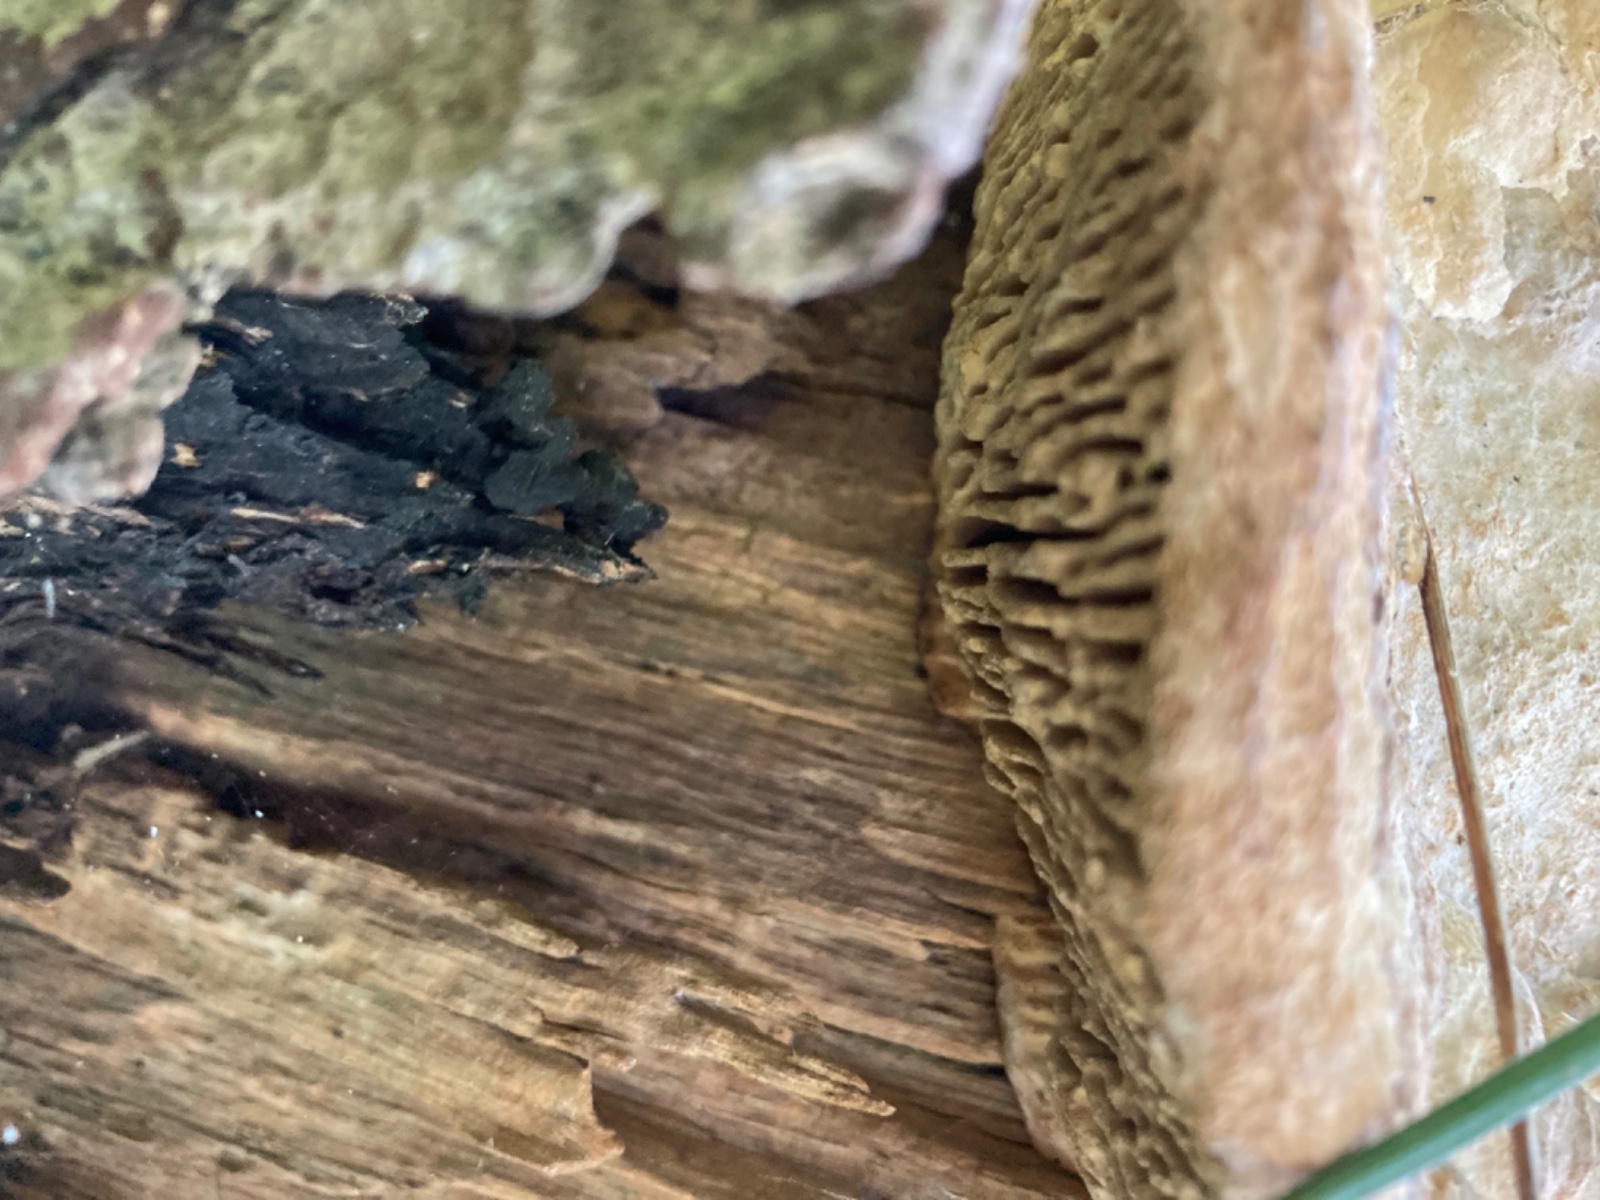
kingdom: Fungi
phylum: Basidiomycota
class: Agaricomycetes
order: Polyporales
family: Fomitopsidaceae
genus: Daedalea
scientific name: Daedalea quercina
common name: ege-labyrintsvamp
